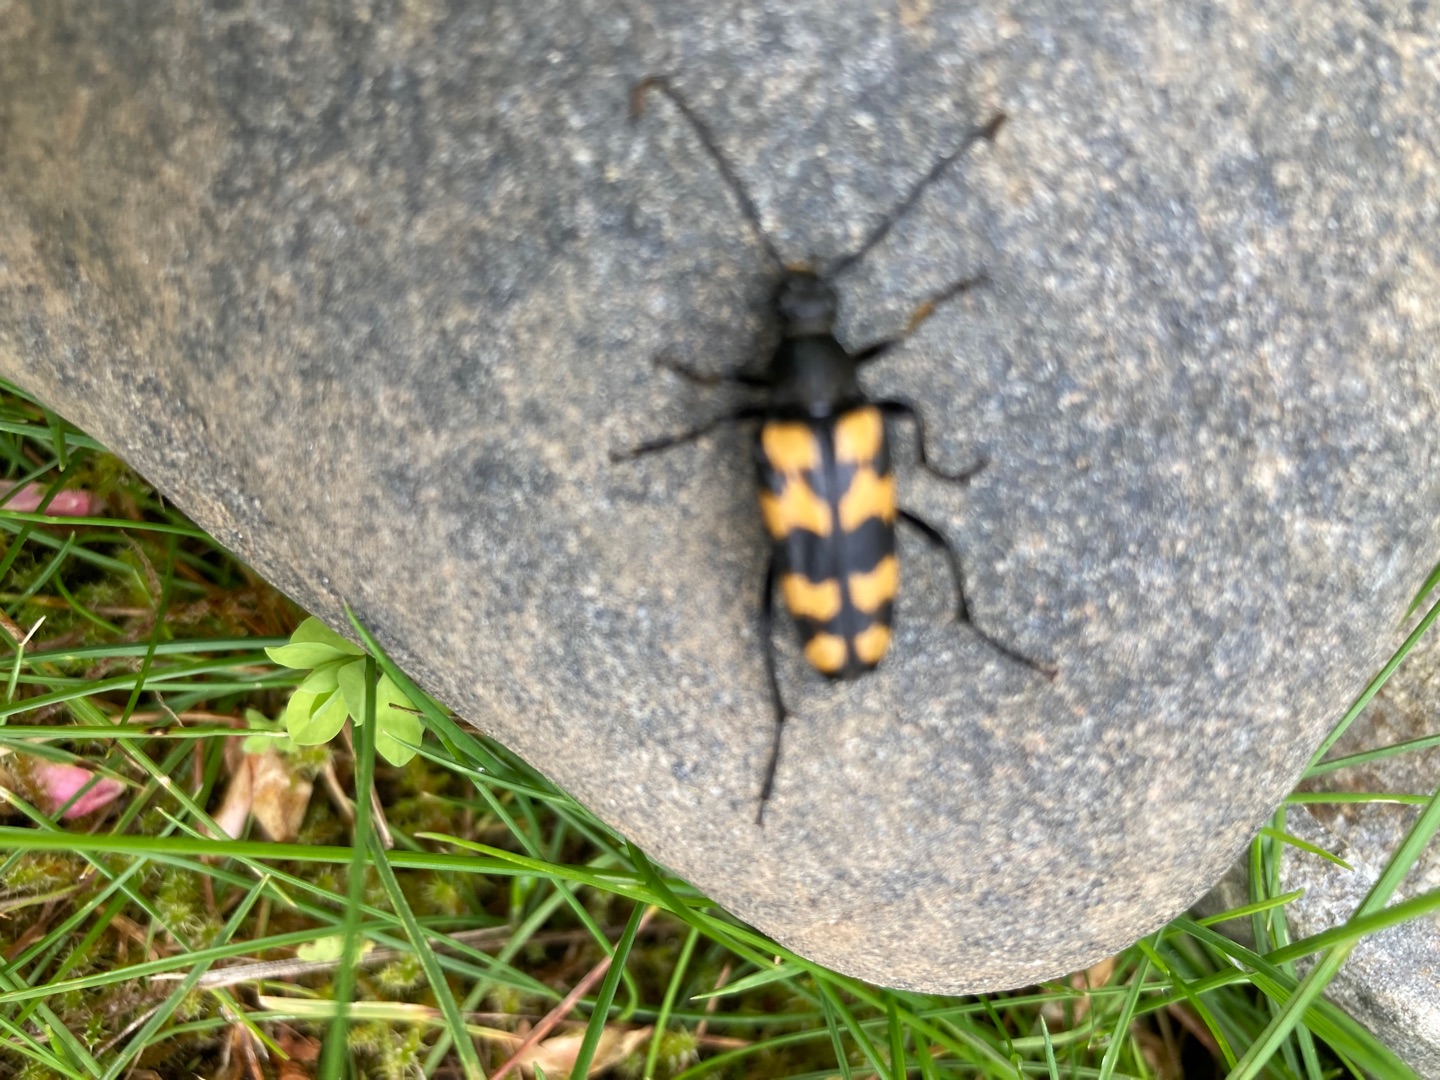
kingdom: Animalia
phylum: Arthropoda
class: Insecta
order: Coleoptera
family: Cerambycidae
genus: Leptura
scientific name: Leptura quadrifasciata
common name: Firebåndet blomsterbuk
